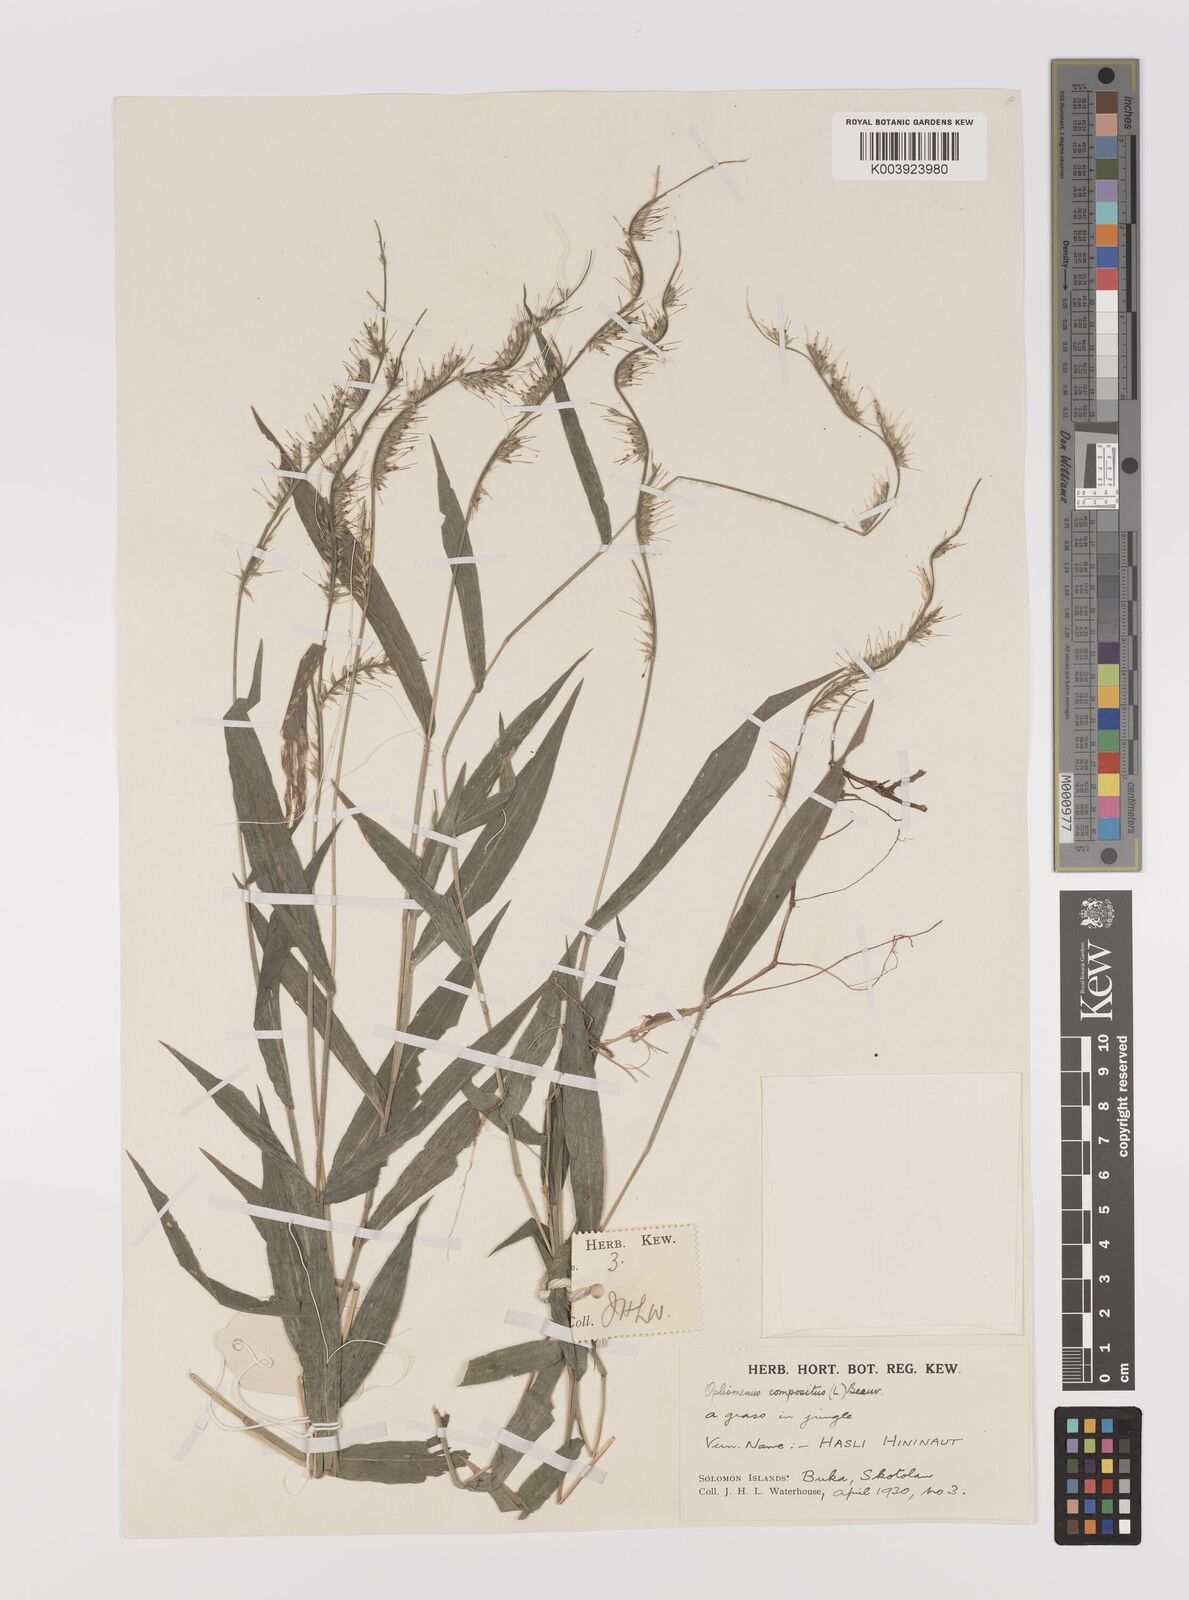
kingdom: Plantae
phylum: Tracheophyta
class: Liliopsida
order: Poales
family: Poaceae
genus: Oplismenus
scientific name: Oplismenus compositus
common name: Running mountain grass
